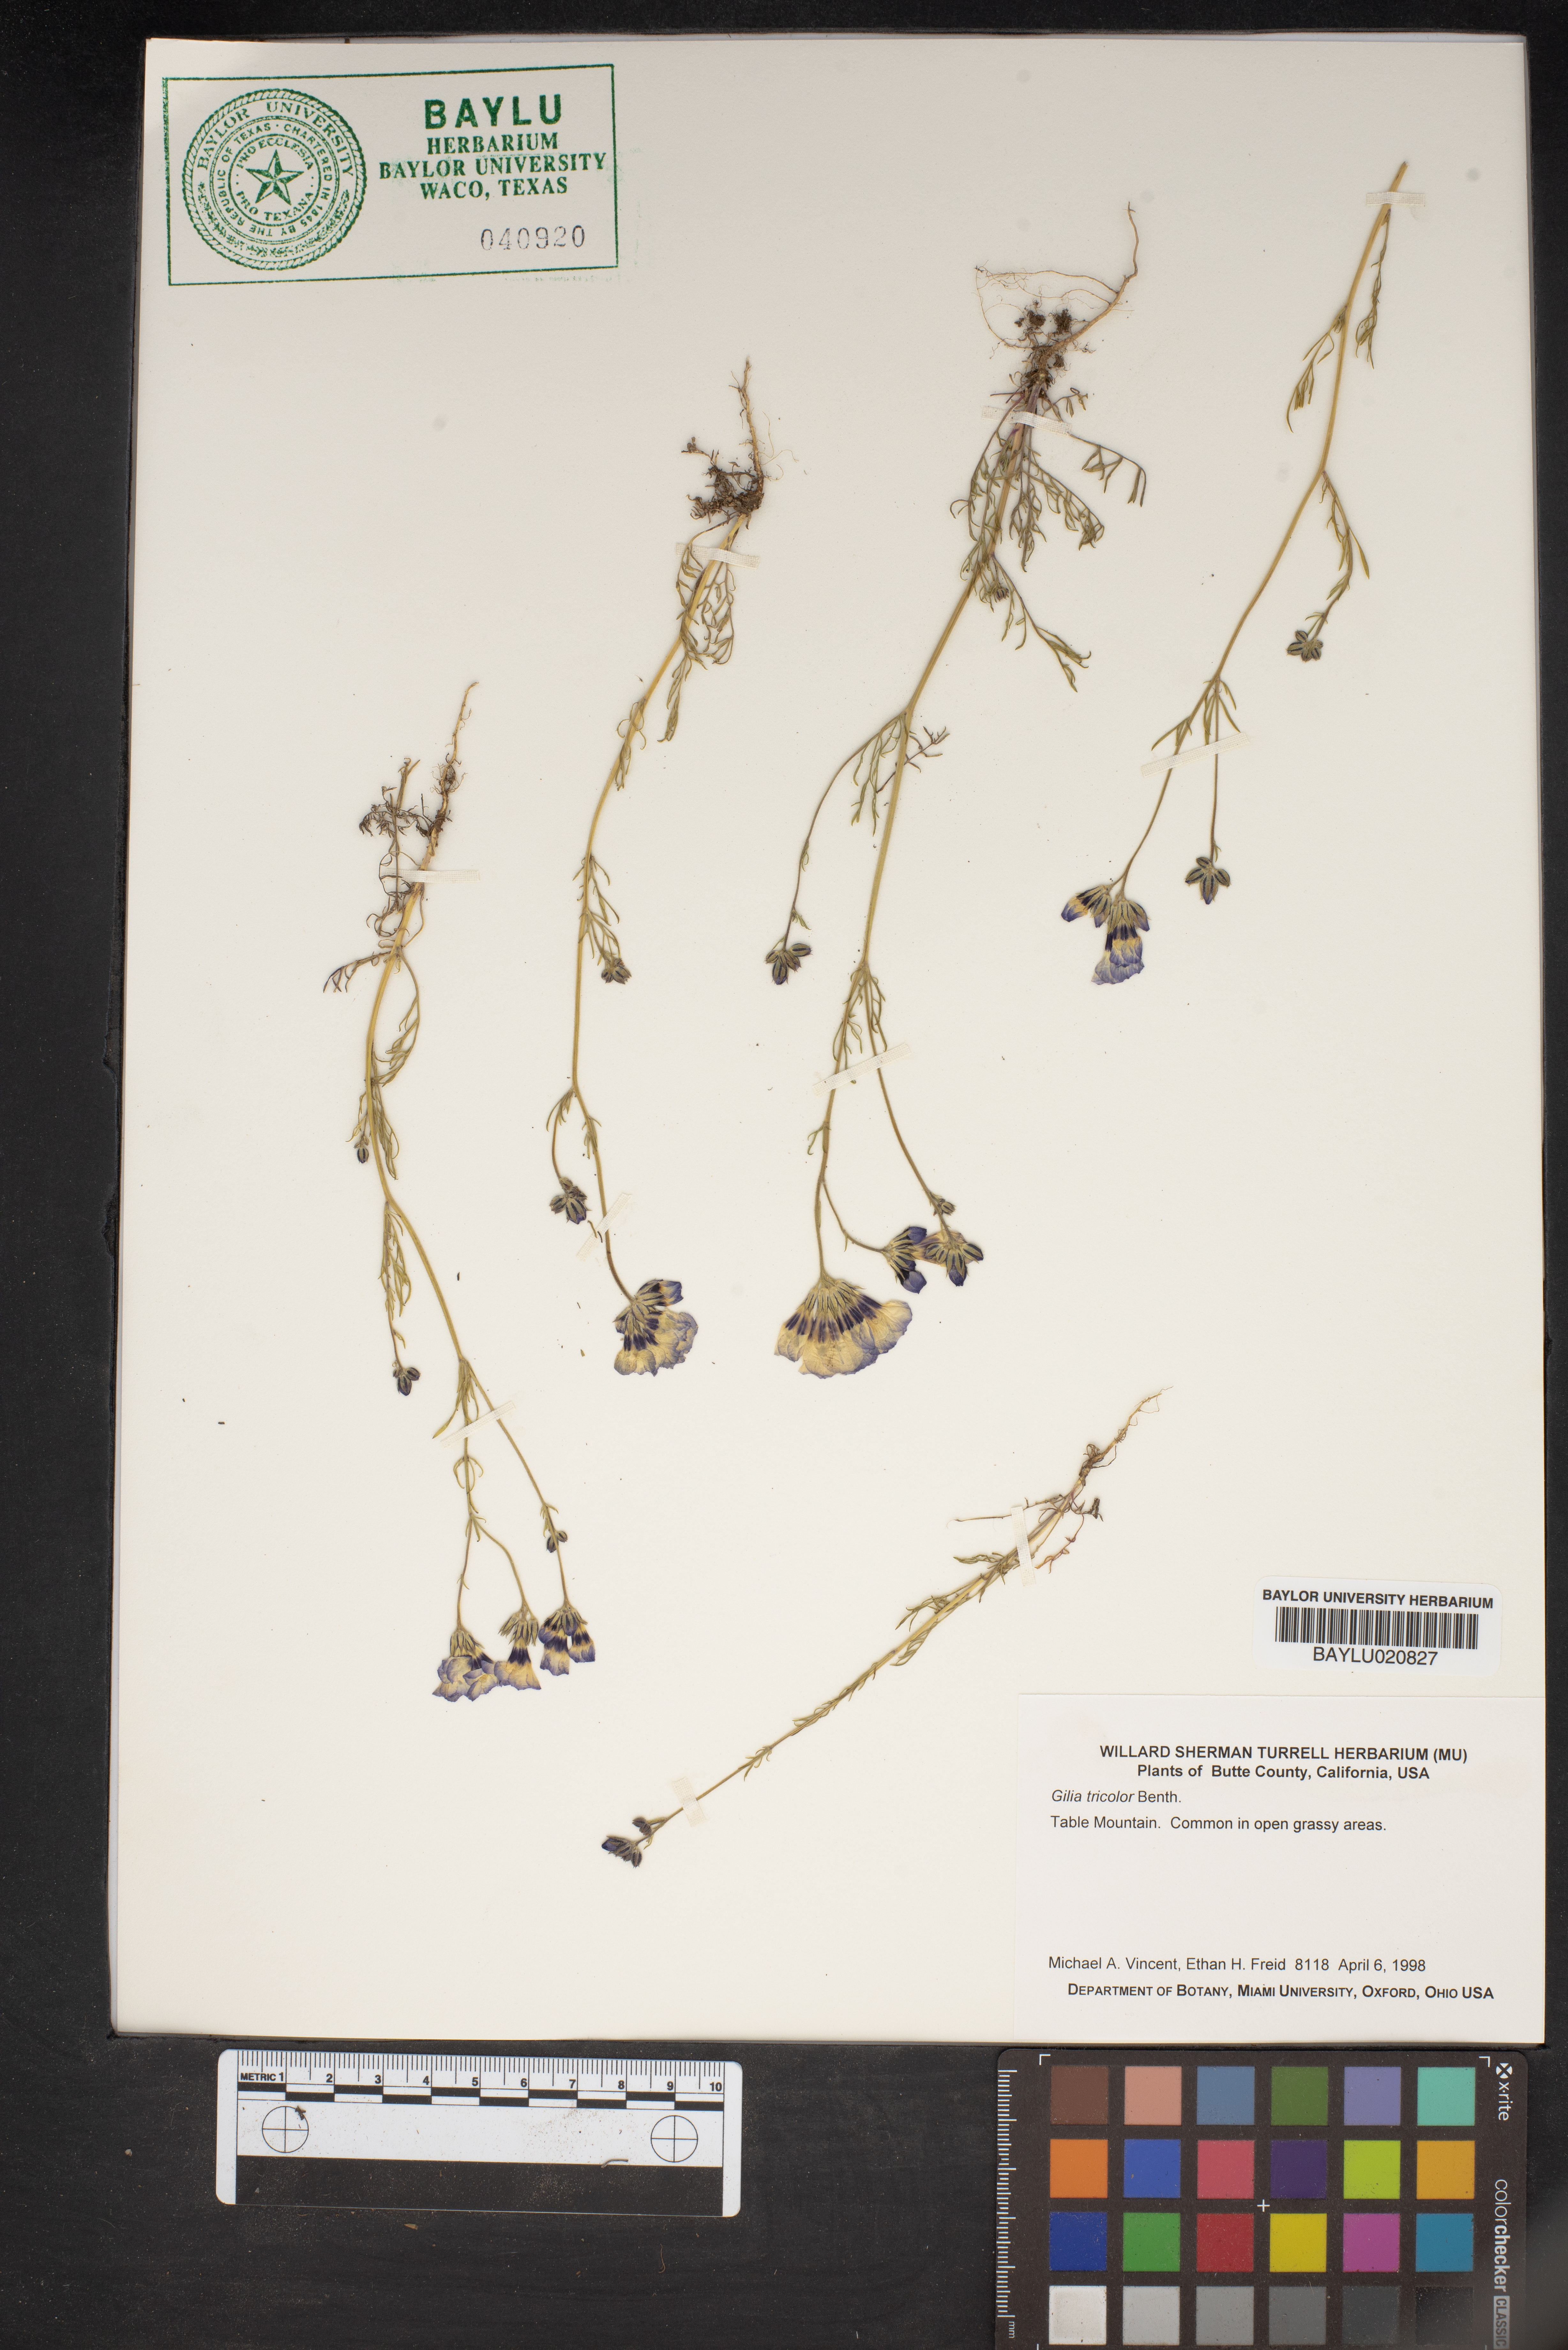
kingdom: Plantae
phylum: Tracheophyta
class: Magnoliopsida
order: Ericales
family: Polemoniaceae
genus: Gilia
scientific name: Gilia tricolor
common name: Bird's-eyes
